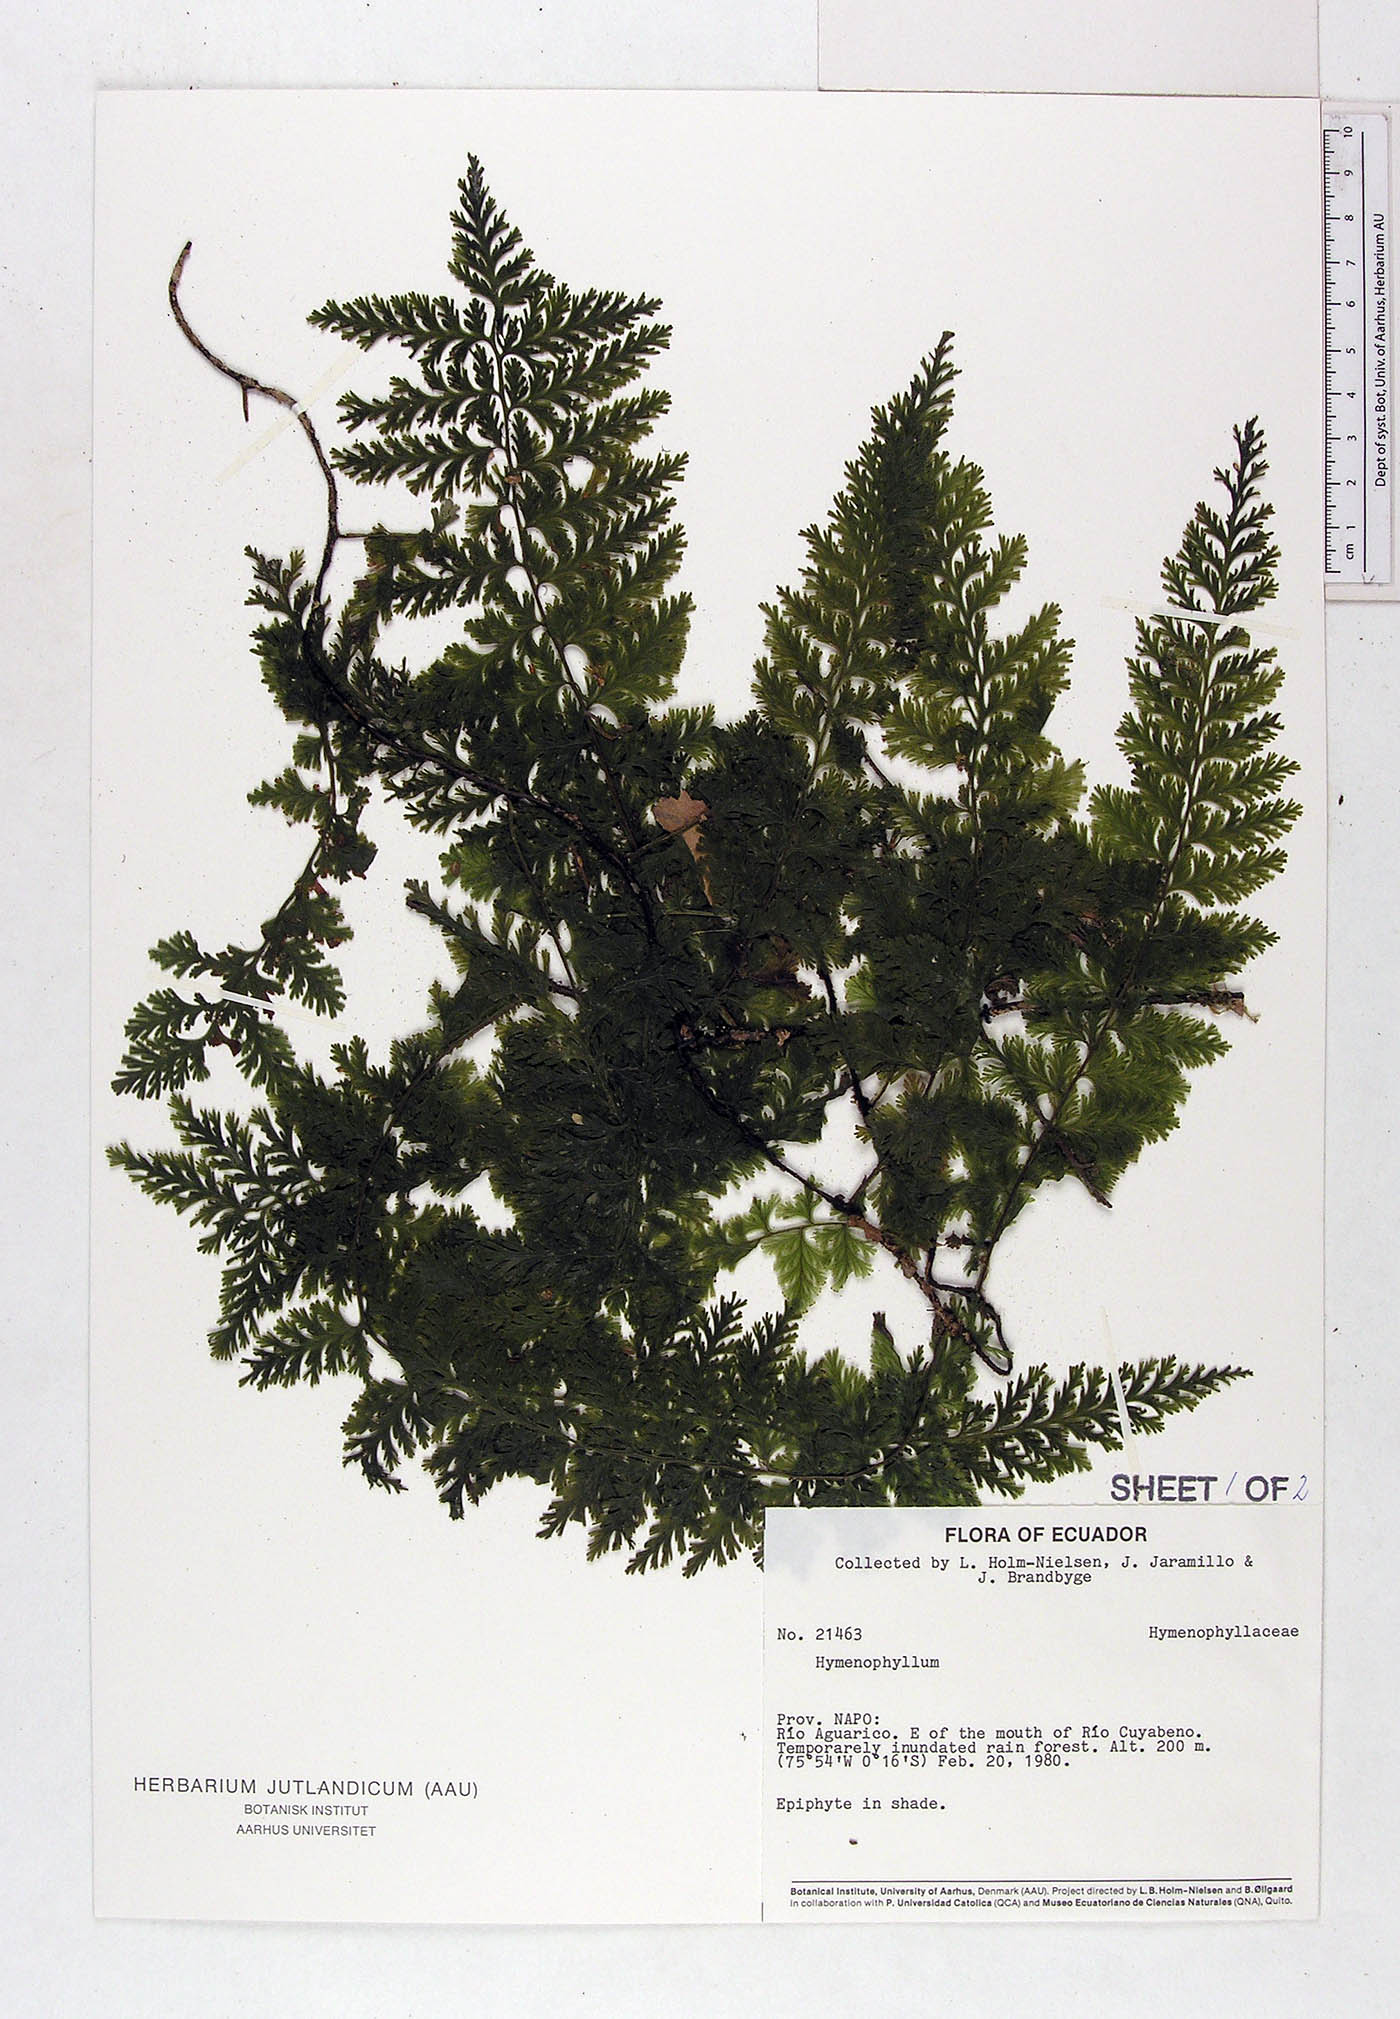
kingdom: Plantae
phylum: Tracheophyta
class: Polypodiopsida
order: Hymenophyllales
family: Hymenophyllaceae
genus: Vandenboschia
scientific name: Vandenboschia collariata
